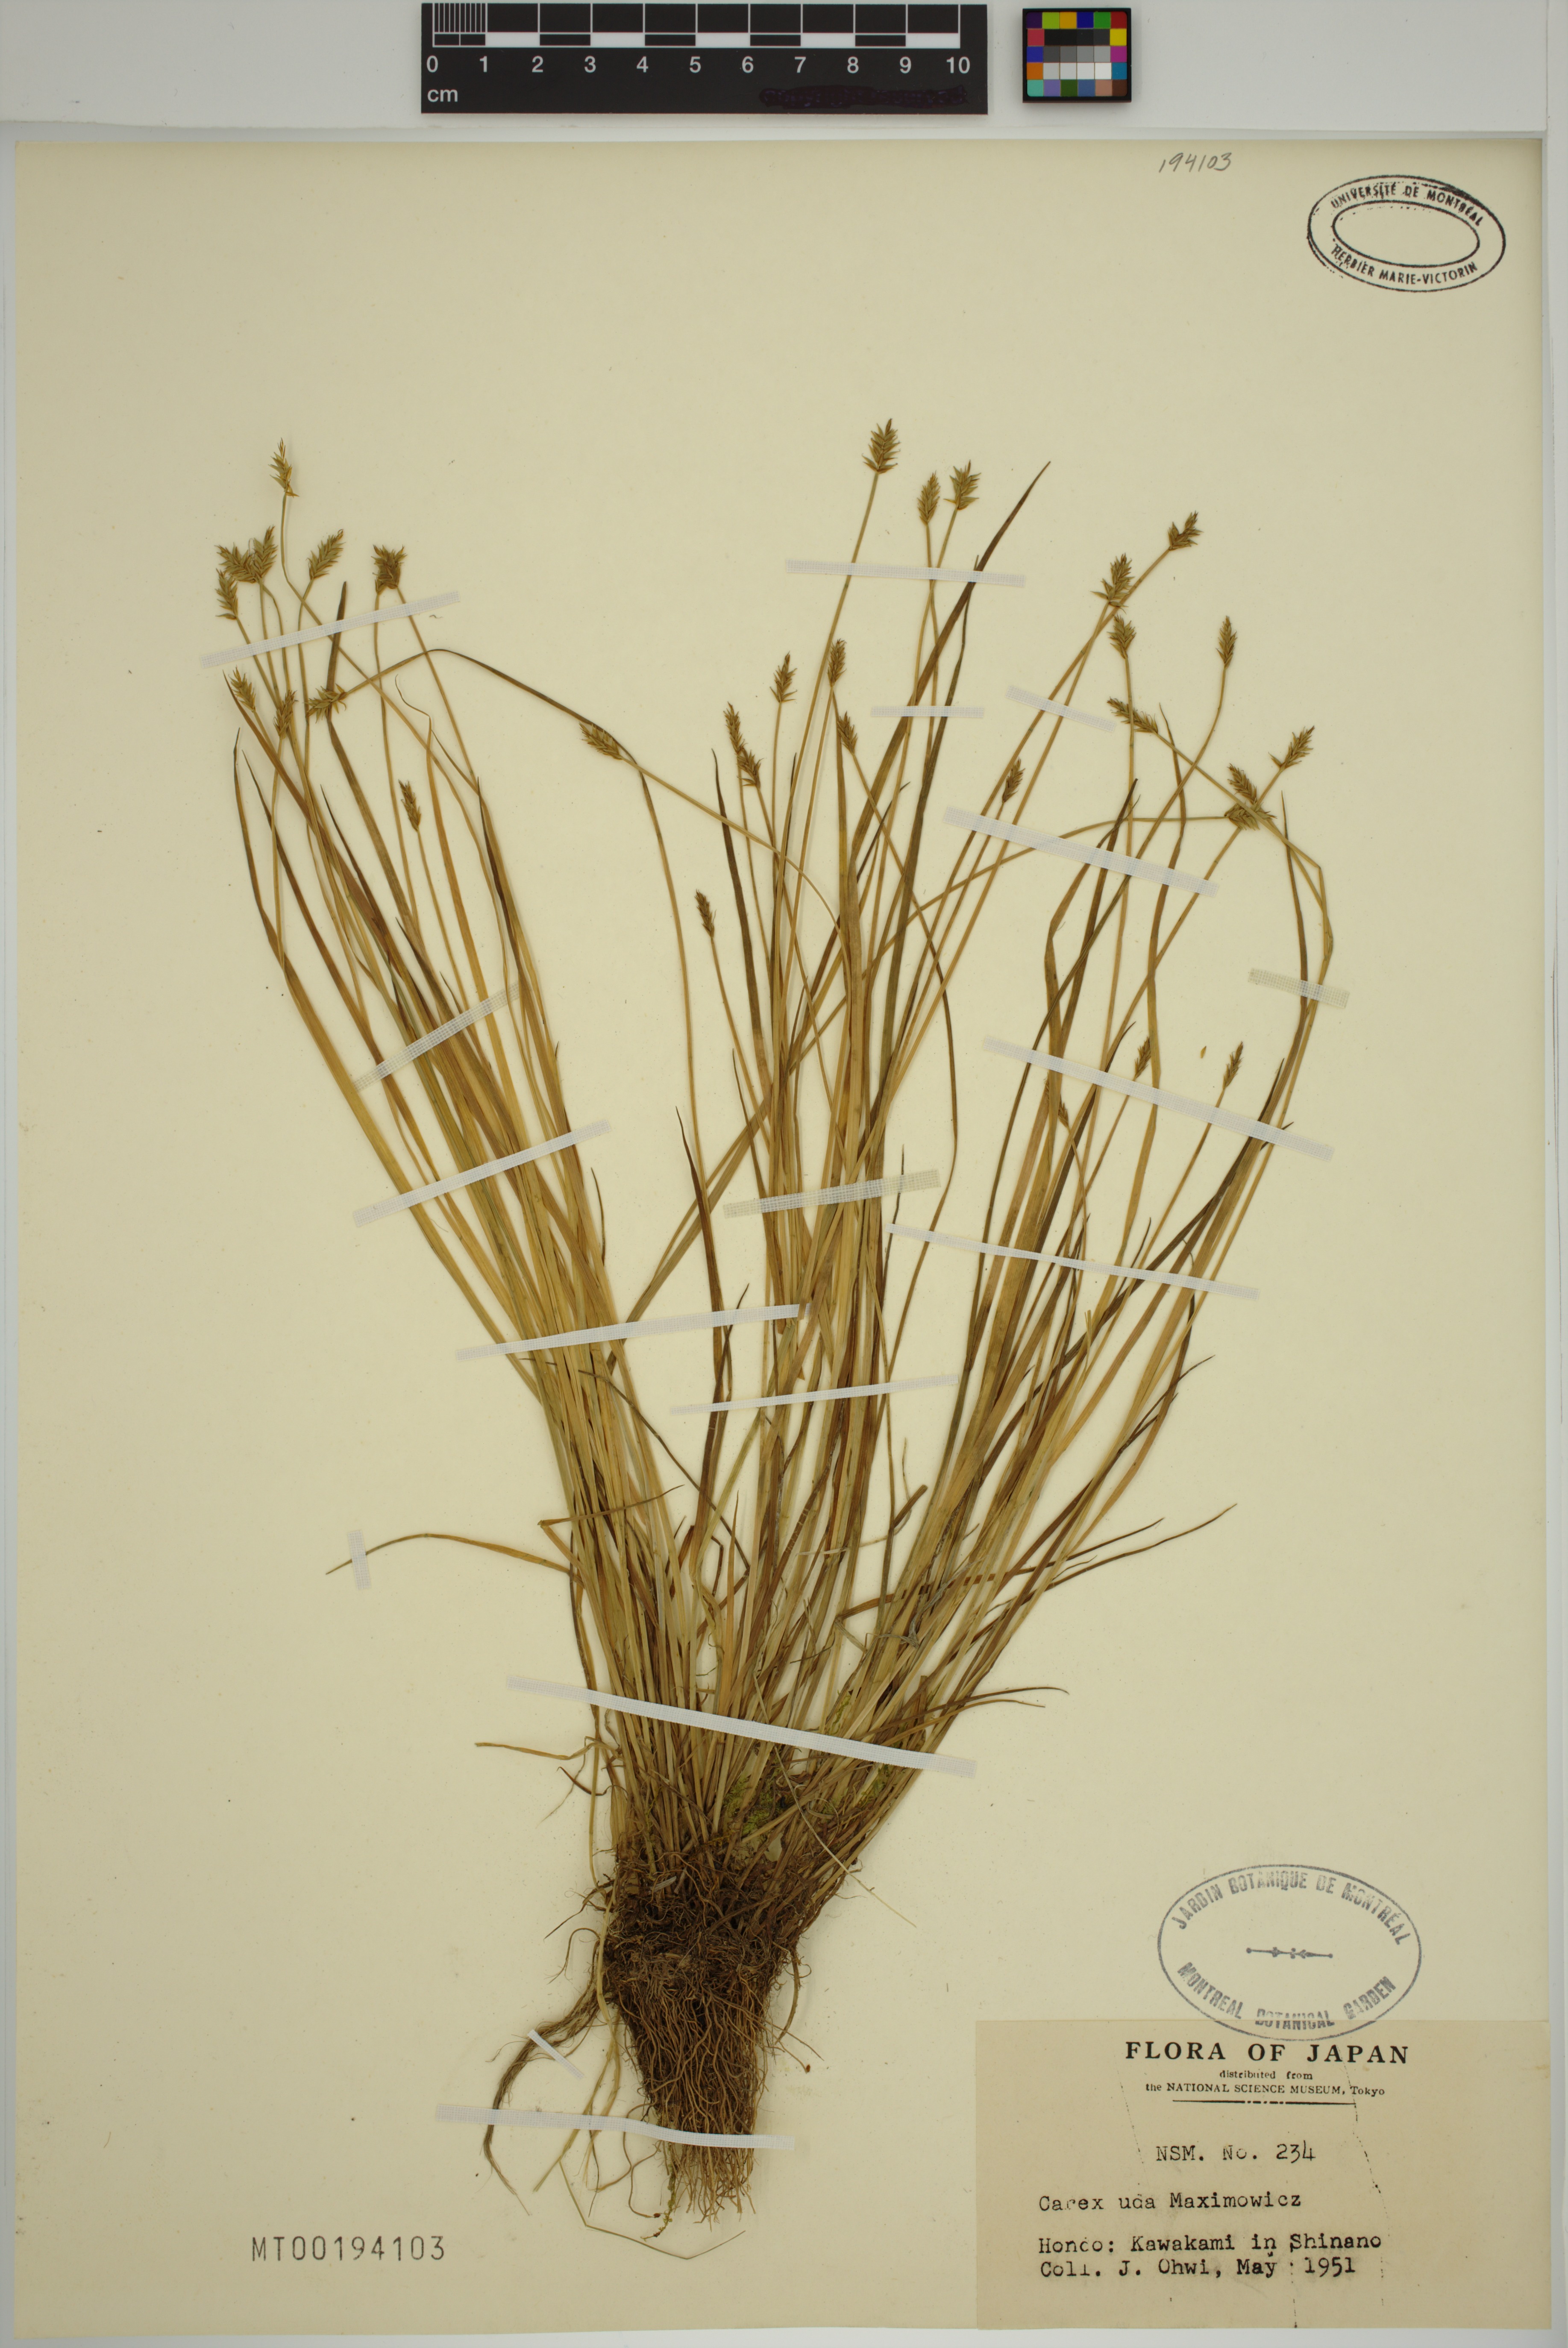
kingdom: Plantae
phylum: Tracheophyta
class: Liliopsida
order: Poales
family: Cyperaceae
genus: Carex
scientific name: Carex uda
